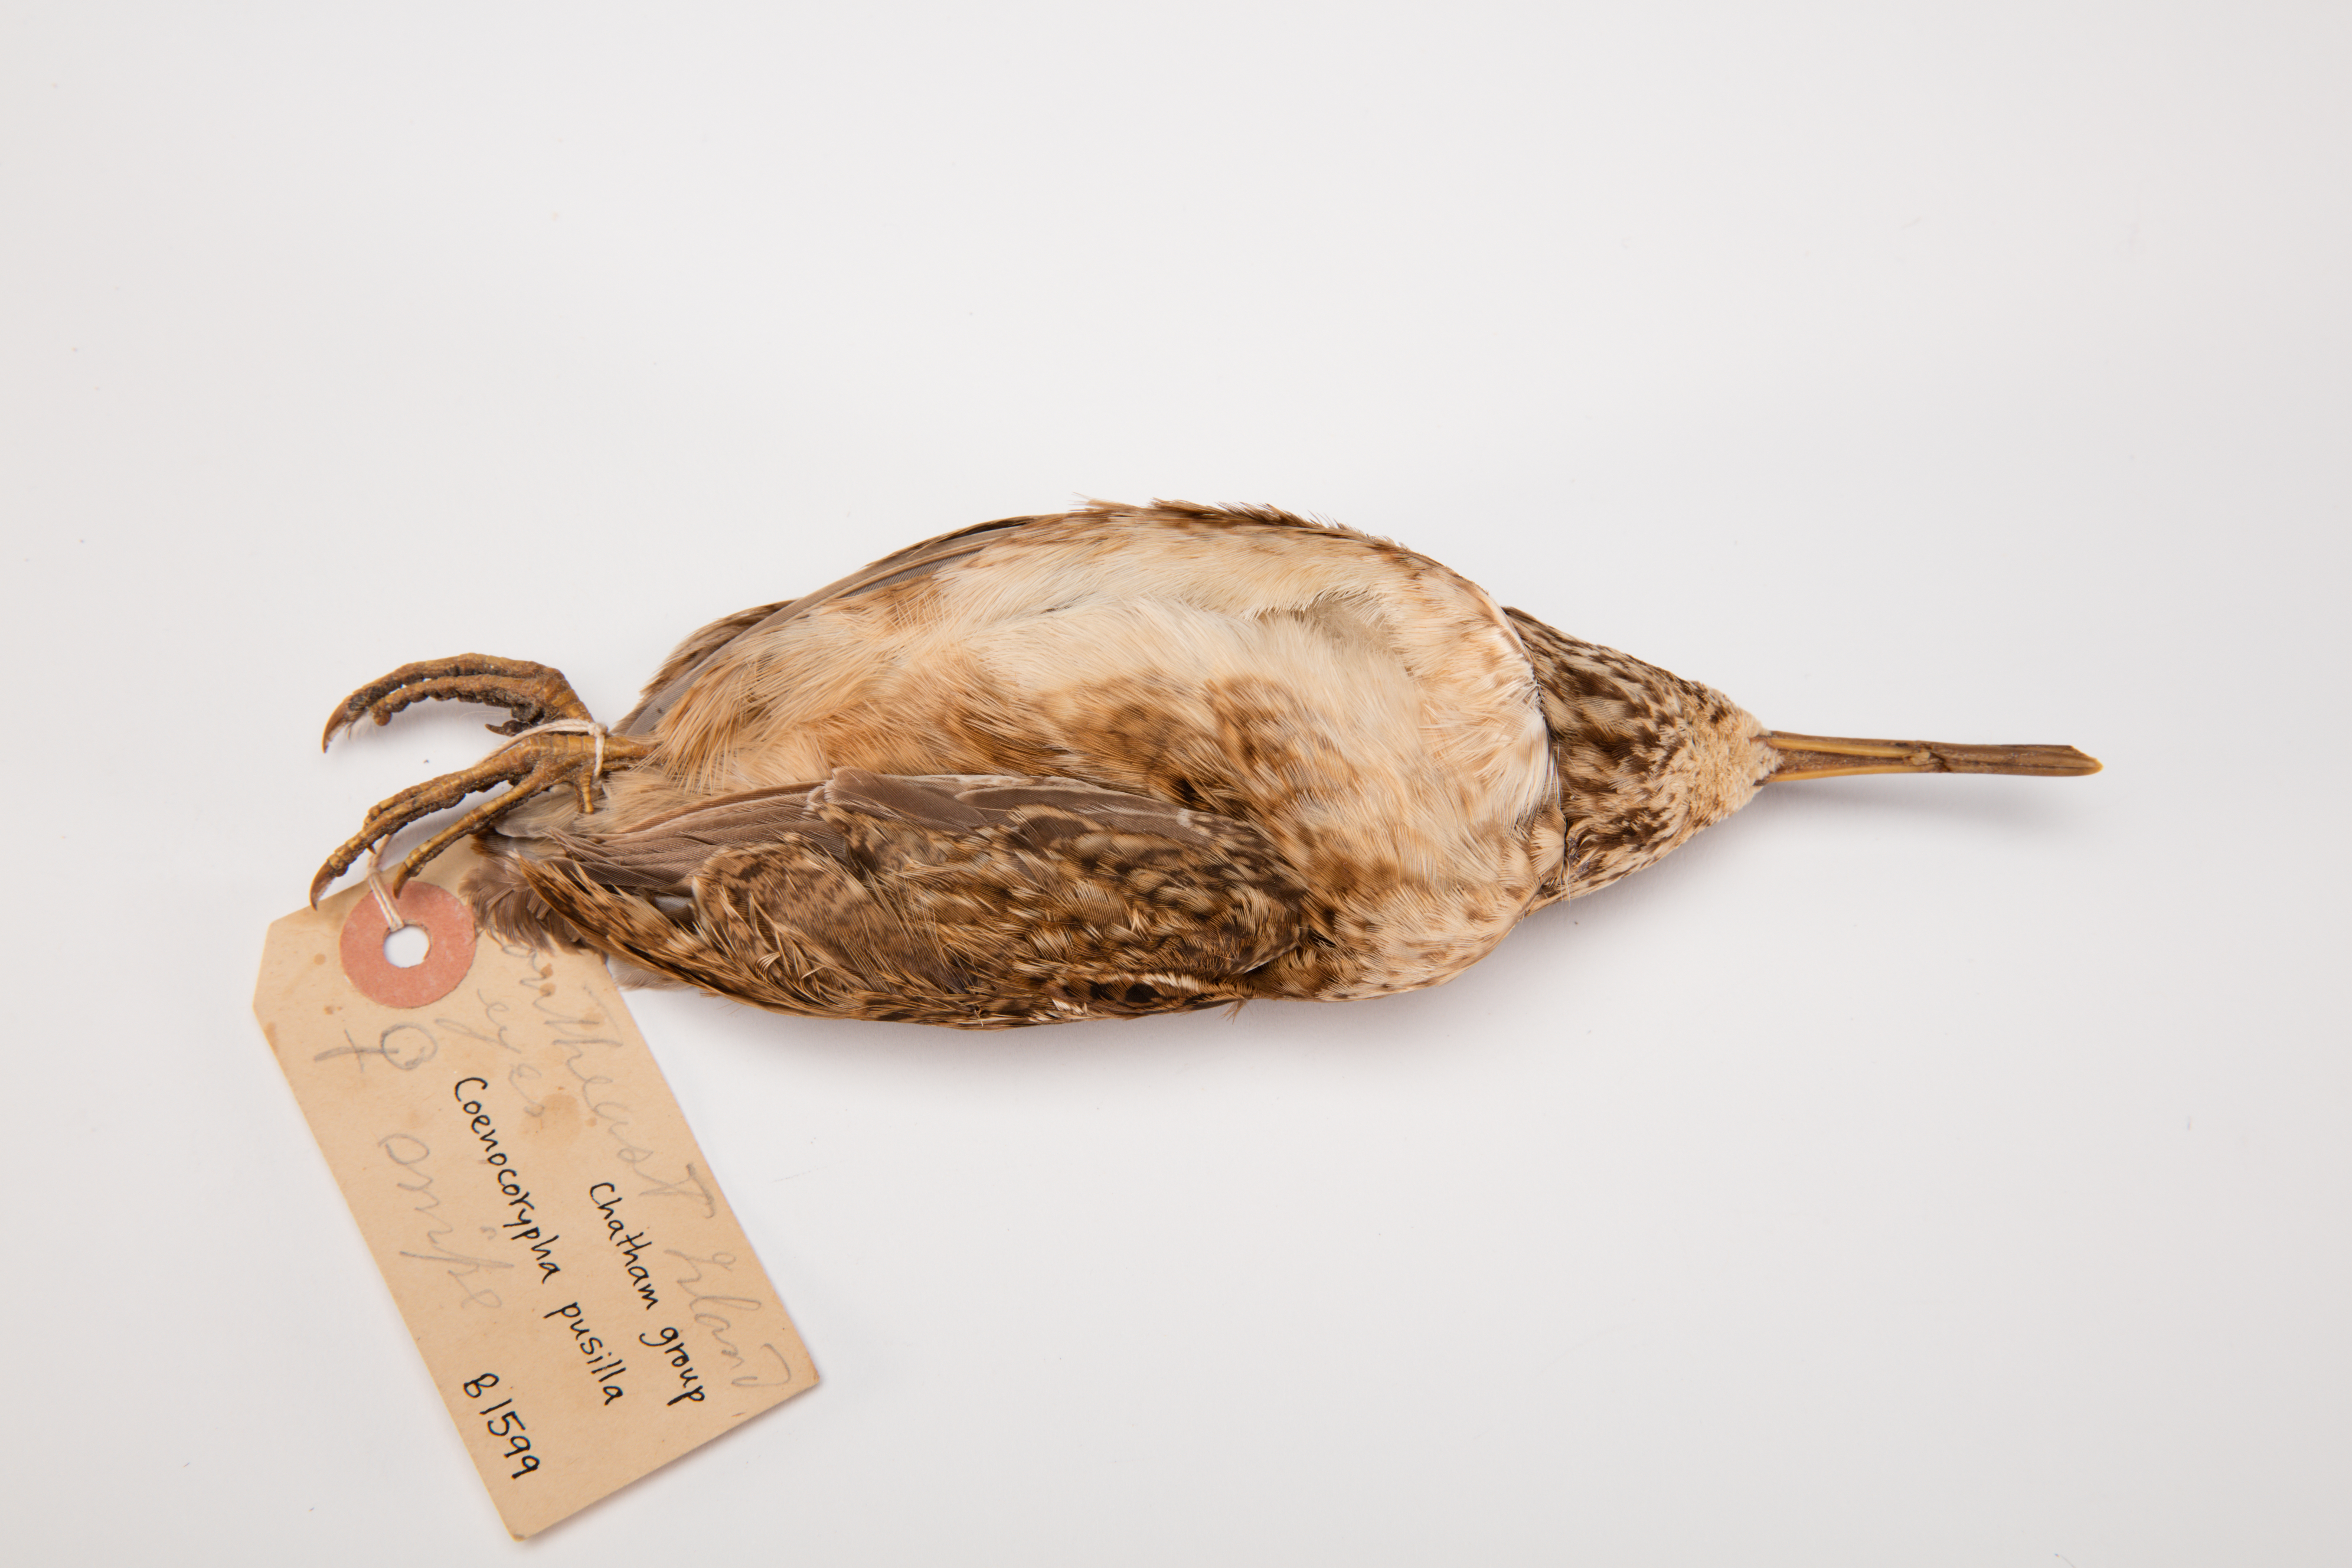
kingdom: Animalia
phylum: Chordata
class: Aves
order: Charadriiformes
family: Scolopacidae
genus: Coenocorypha
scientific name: Coenocorypha pusilla
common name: Chatham snipe
